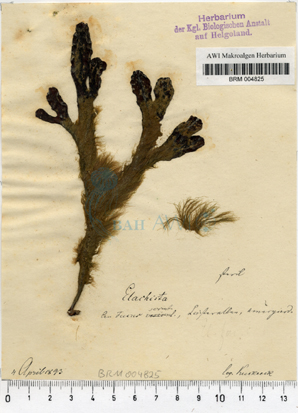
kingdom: Chromista
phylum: Ochrophyta
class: Phaeophyceae
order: Ectocarpales
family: Chordariaceae
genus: Elachista
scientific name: Elachista fucicola
